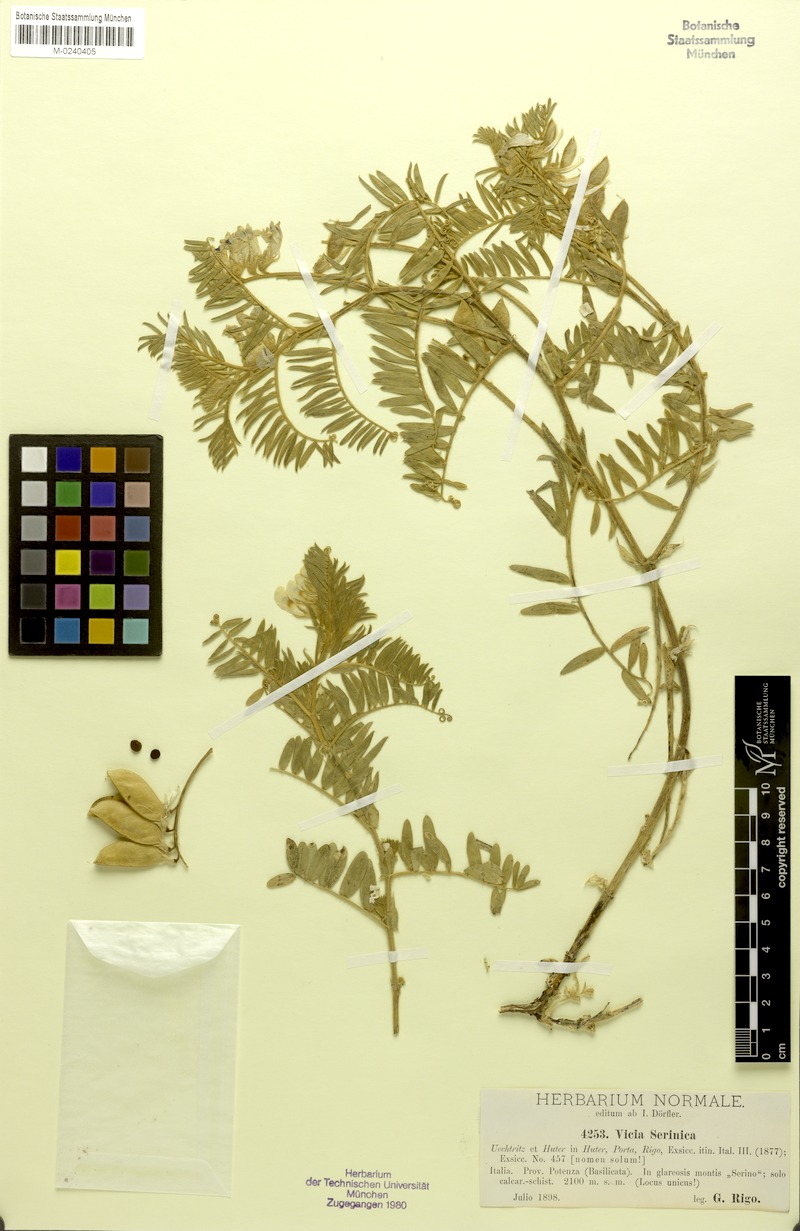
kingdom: Plantae
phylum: Tracheophyta
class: Magnoliopsida
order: Fabales
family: Fabaceae
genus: Vicia
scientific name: Vicia canescens
